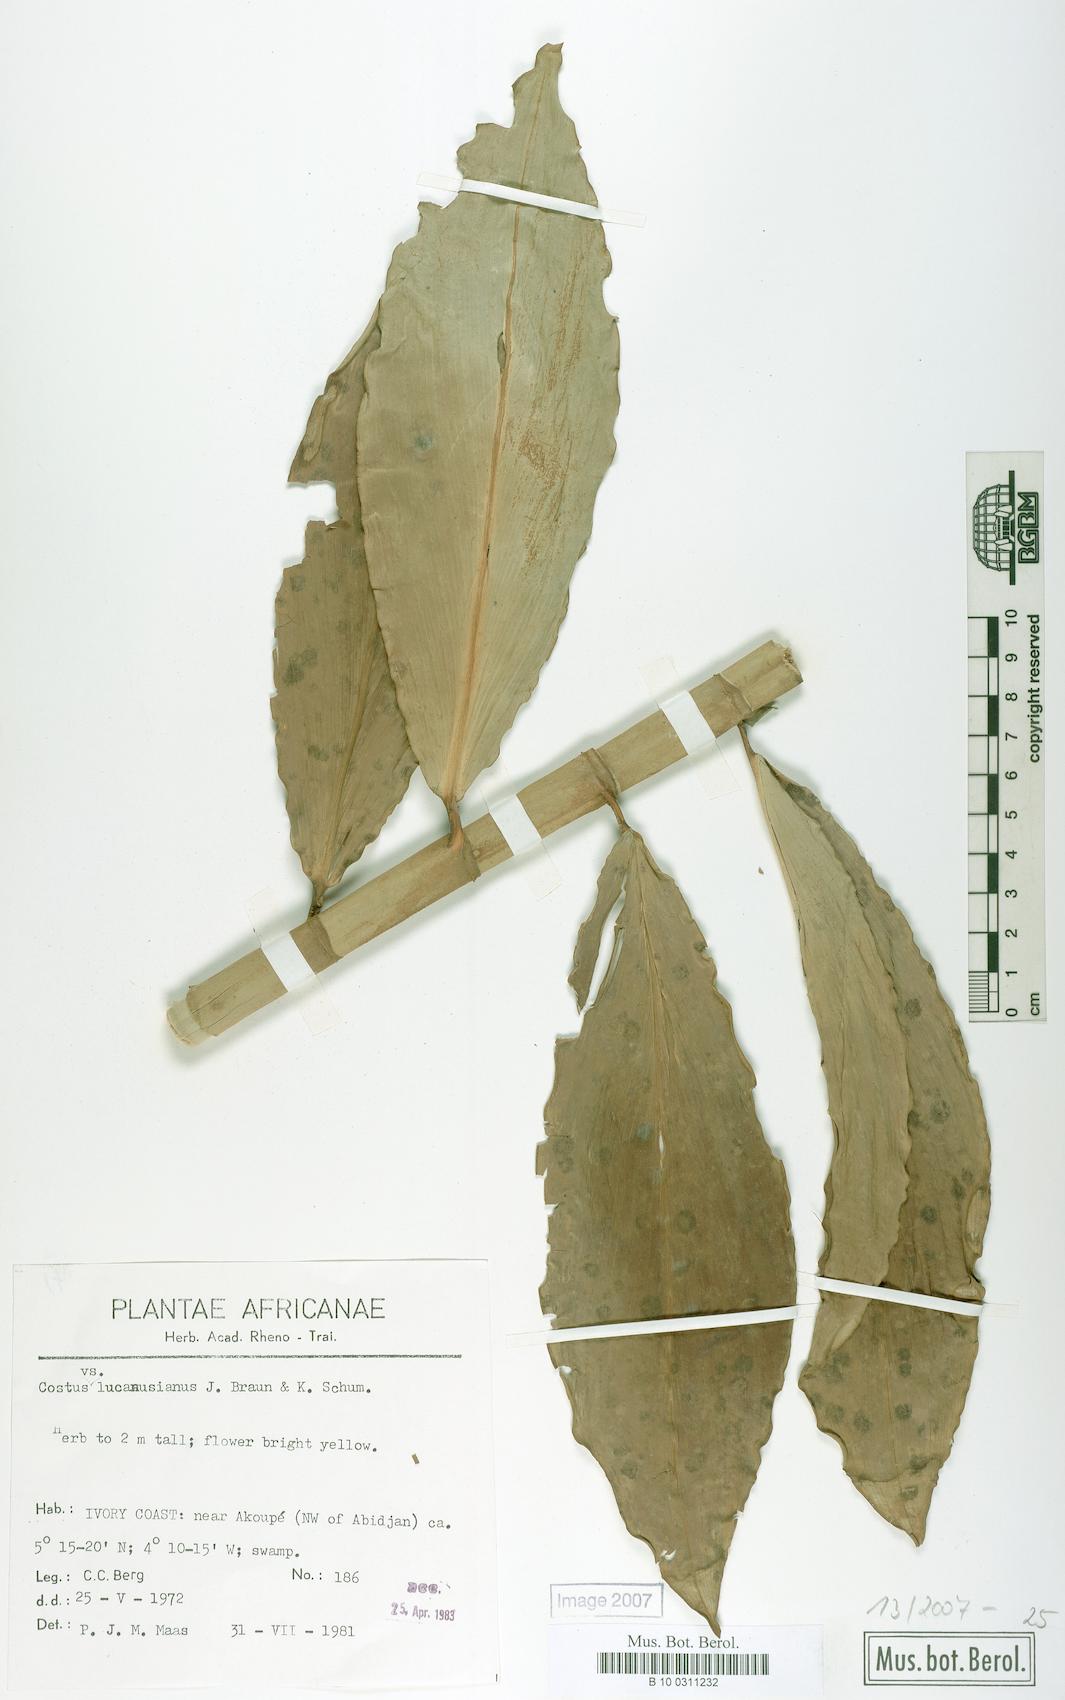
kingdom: Plantae
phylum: Tracheophyta
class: Liliopsida
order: Zingiberales
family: Costaceae
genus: Costus
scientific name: Costus aureus
